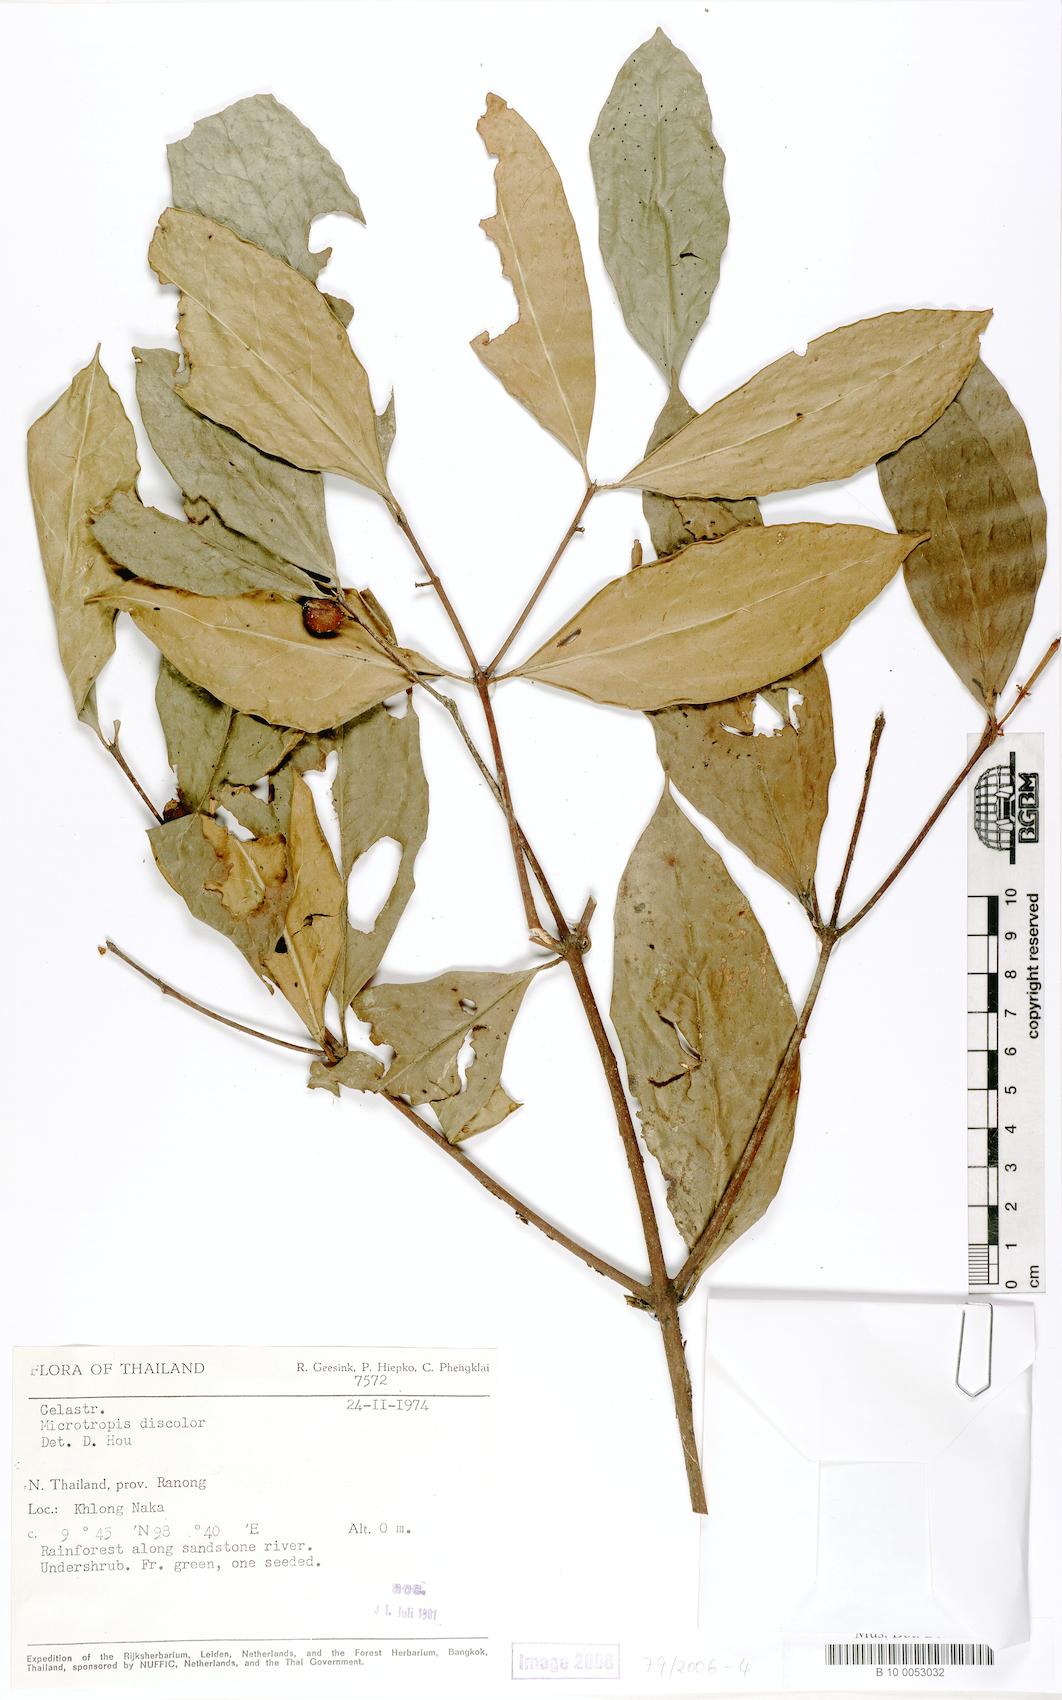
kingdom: Plantae
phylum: Tracheophyta
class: Magnoliopsida
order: Celastrales
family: Celastraceae
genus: Microtropis
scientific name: Microtropis discolor
